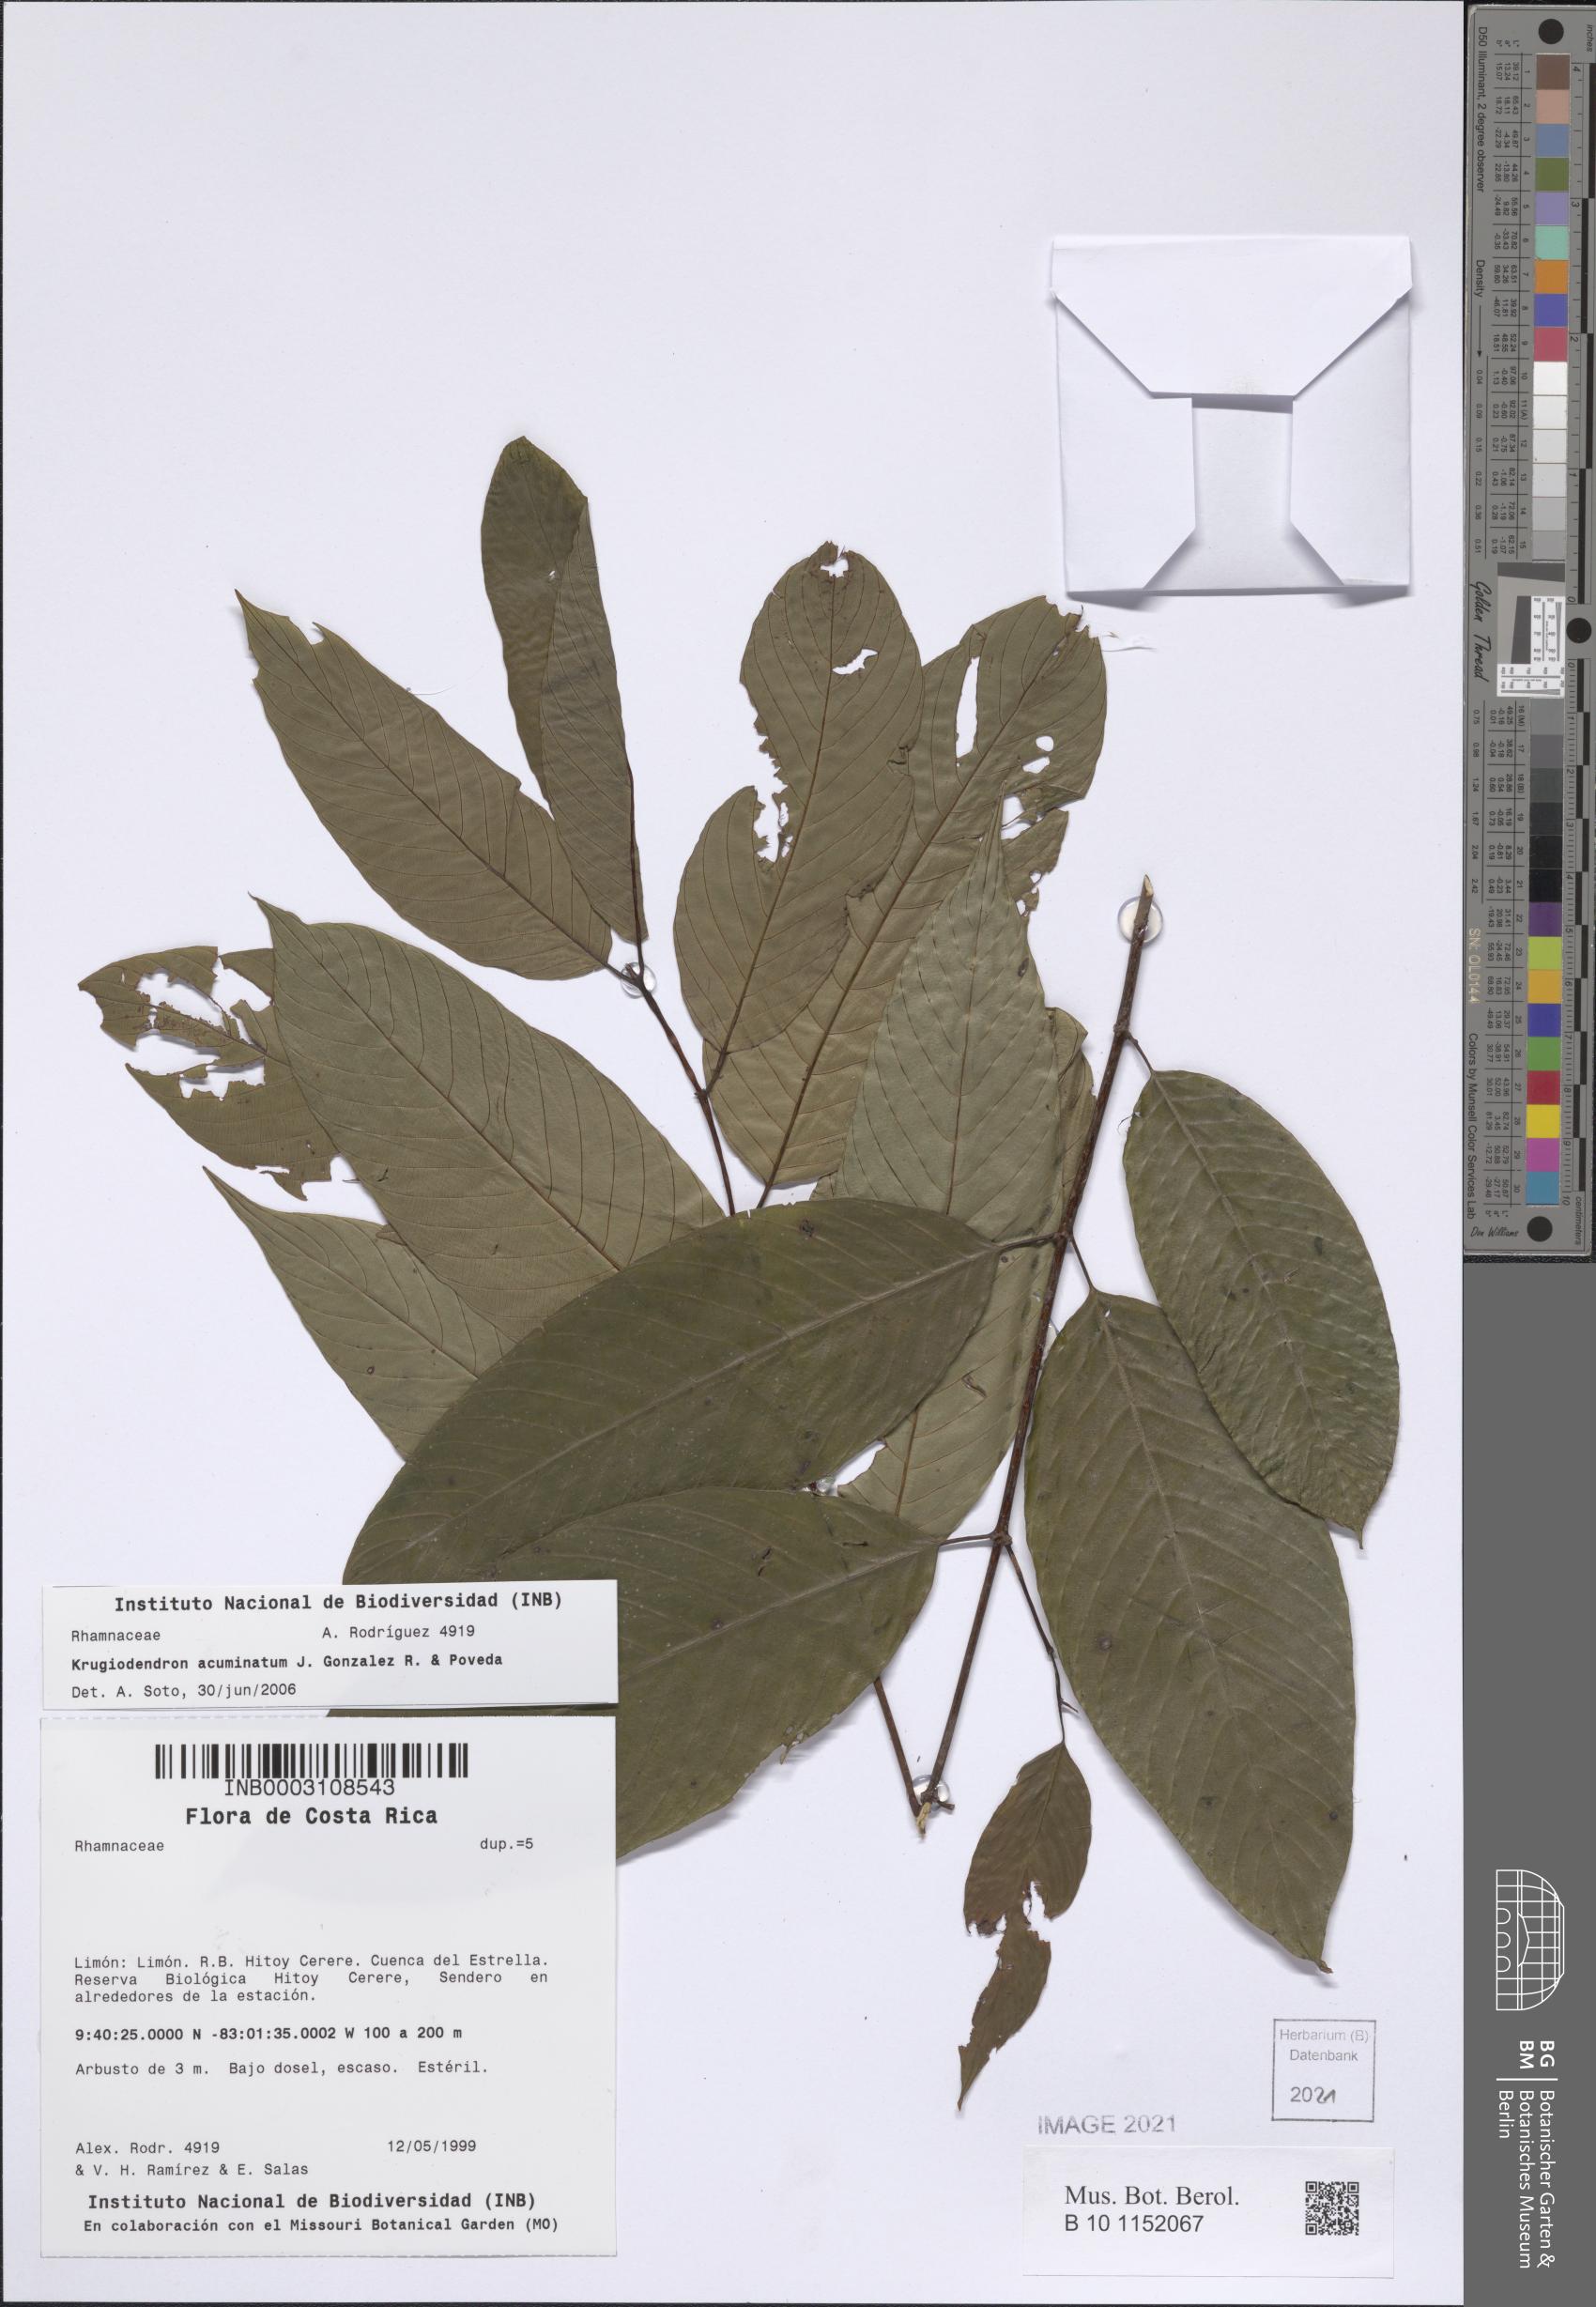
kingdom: Plantae
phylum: Tracheophyta
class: Magnoliopsida
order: Rosales
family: Rhamnaceae
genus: Karwinskia
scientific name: Karwinskia pluvialis
